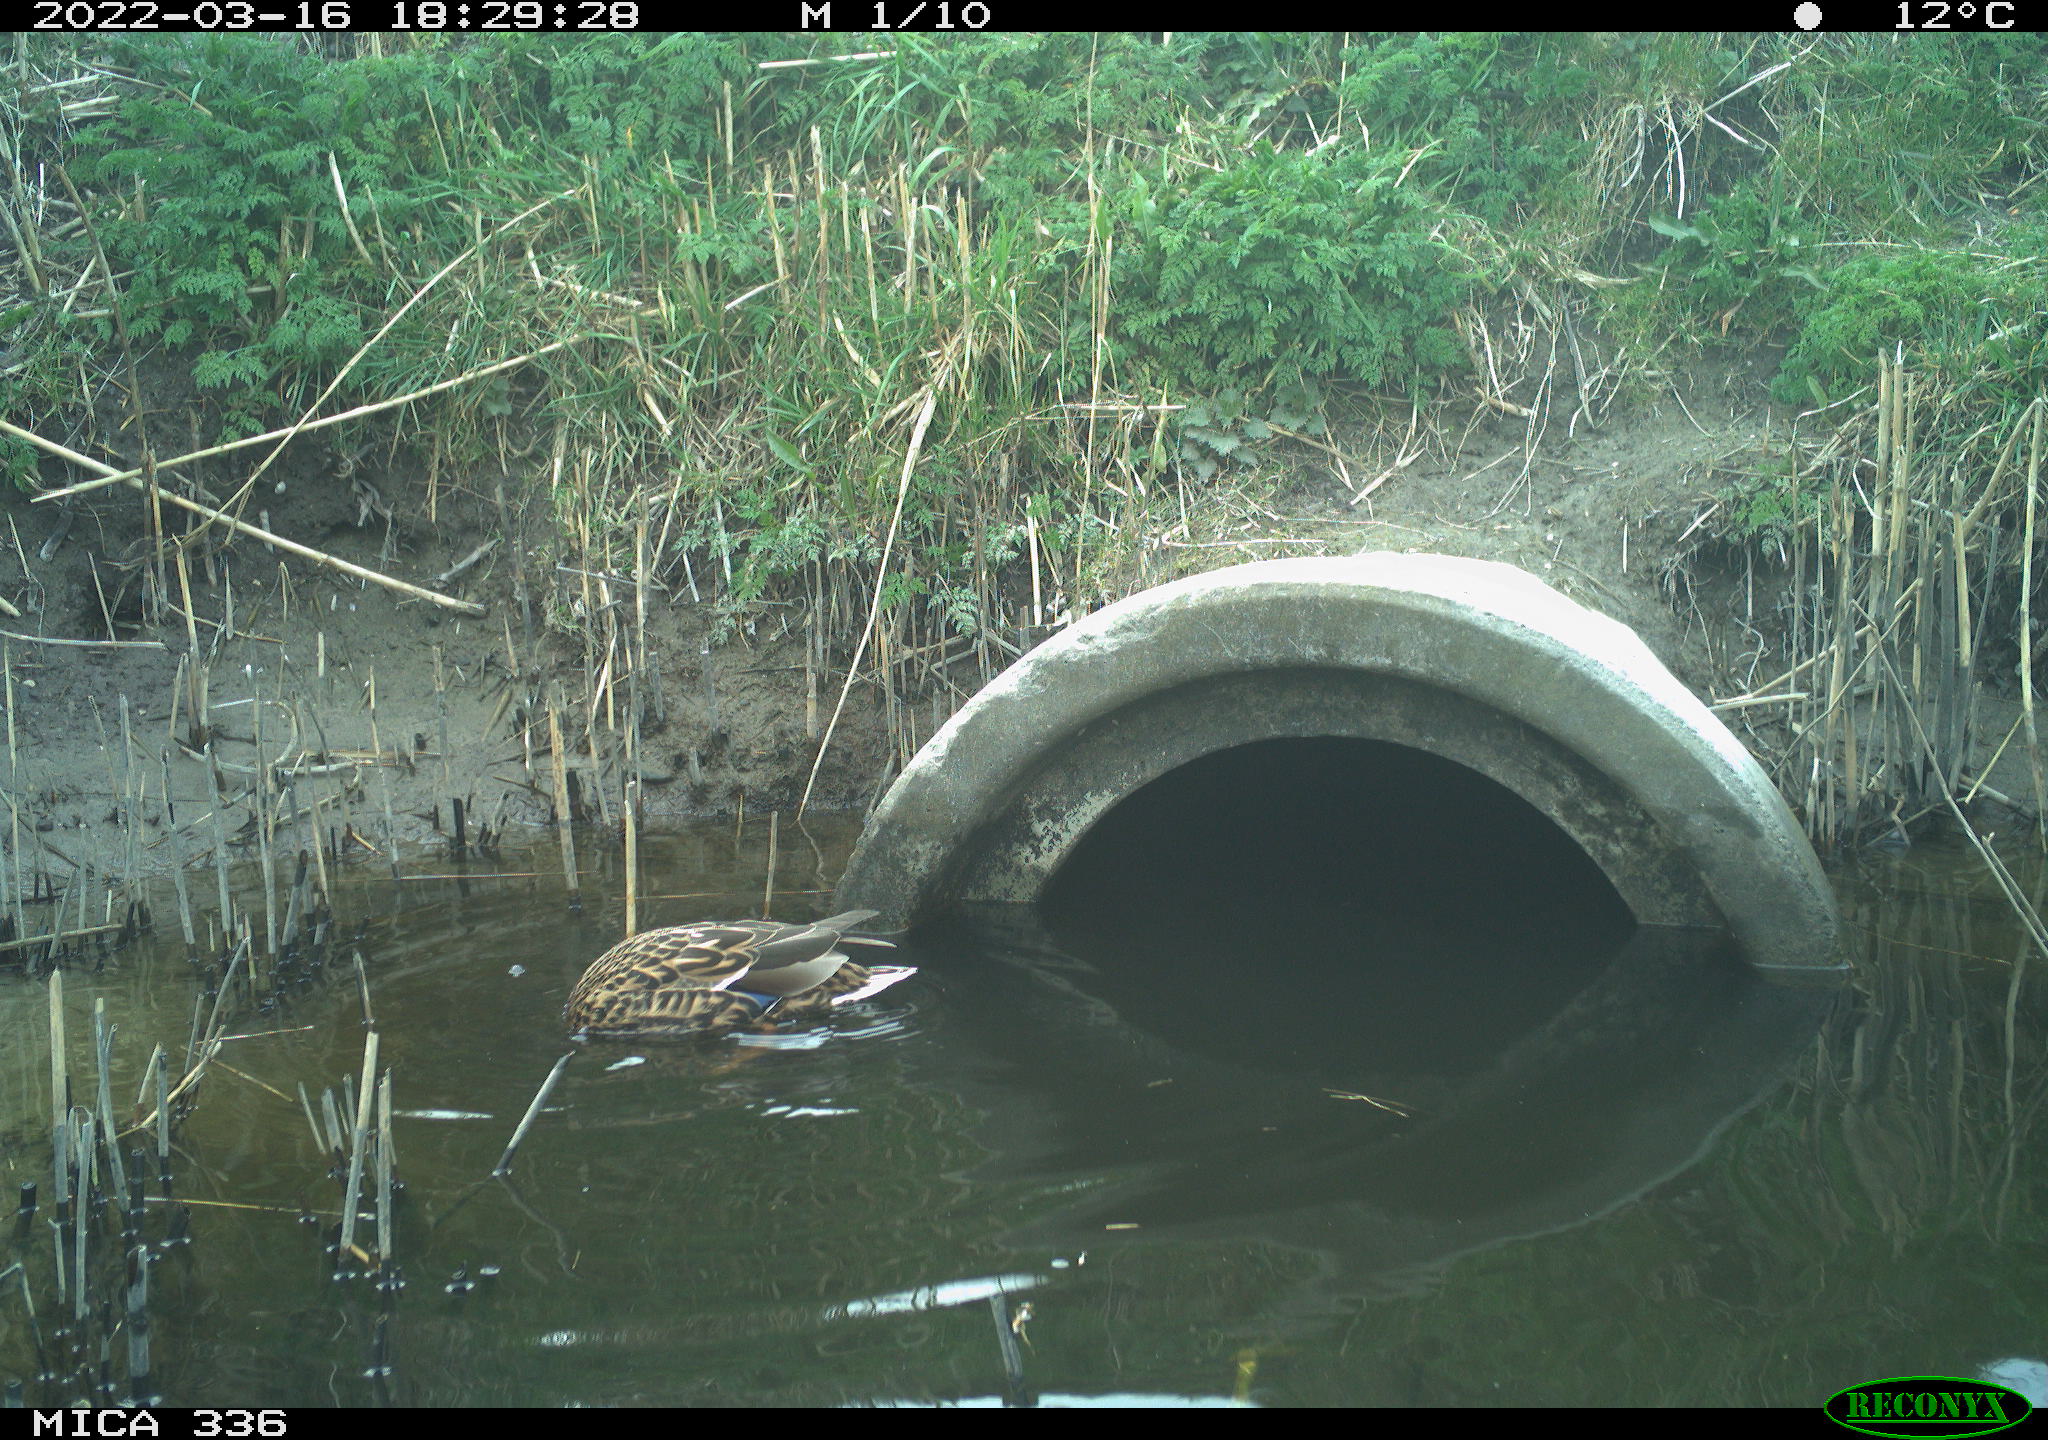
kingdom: Animalia
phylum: Chordata
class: Aves
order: Anseriformes
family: Anatidae
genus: Anas
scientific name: Anas platyrhynchos
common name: Mallard
